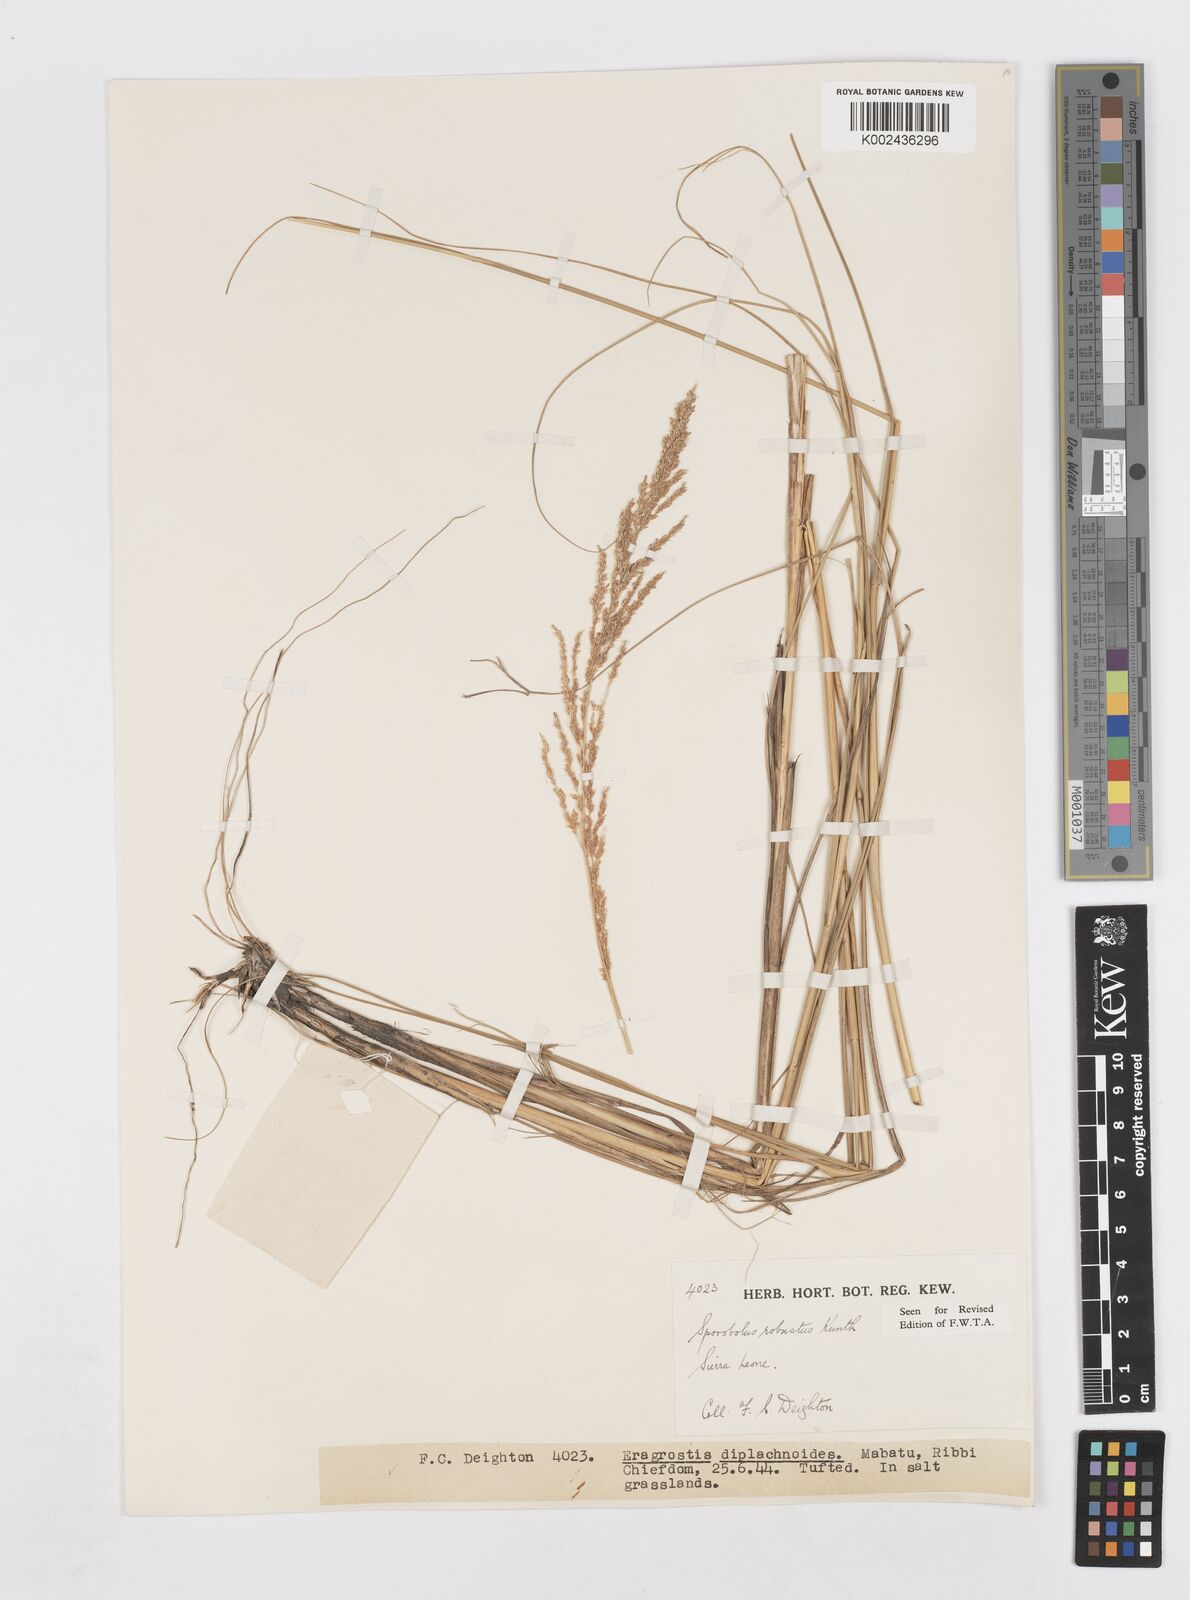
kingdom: Plantae
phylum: Tracheophyta
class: Liliopsida
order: Poales
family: Poaceae
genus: Sporobolus
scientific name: Sporobolus robustus
